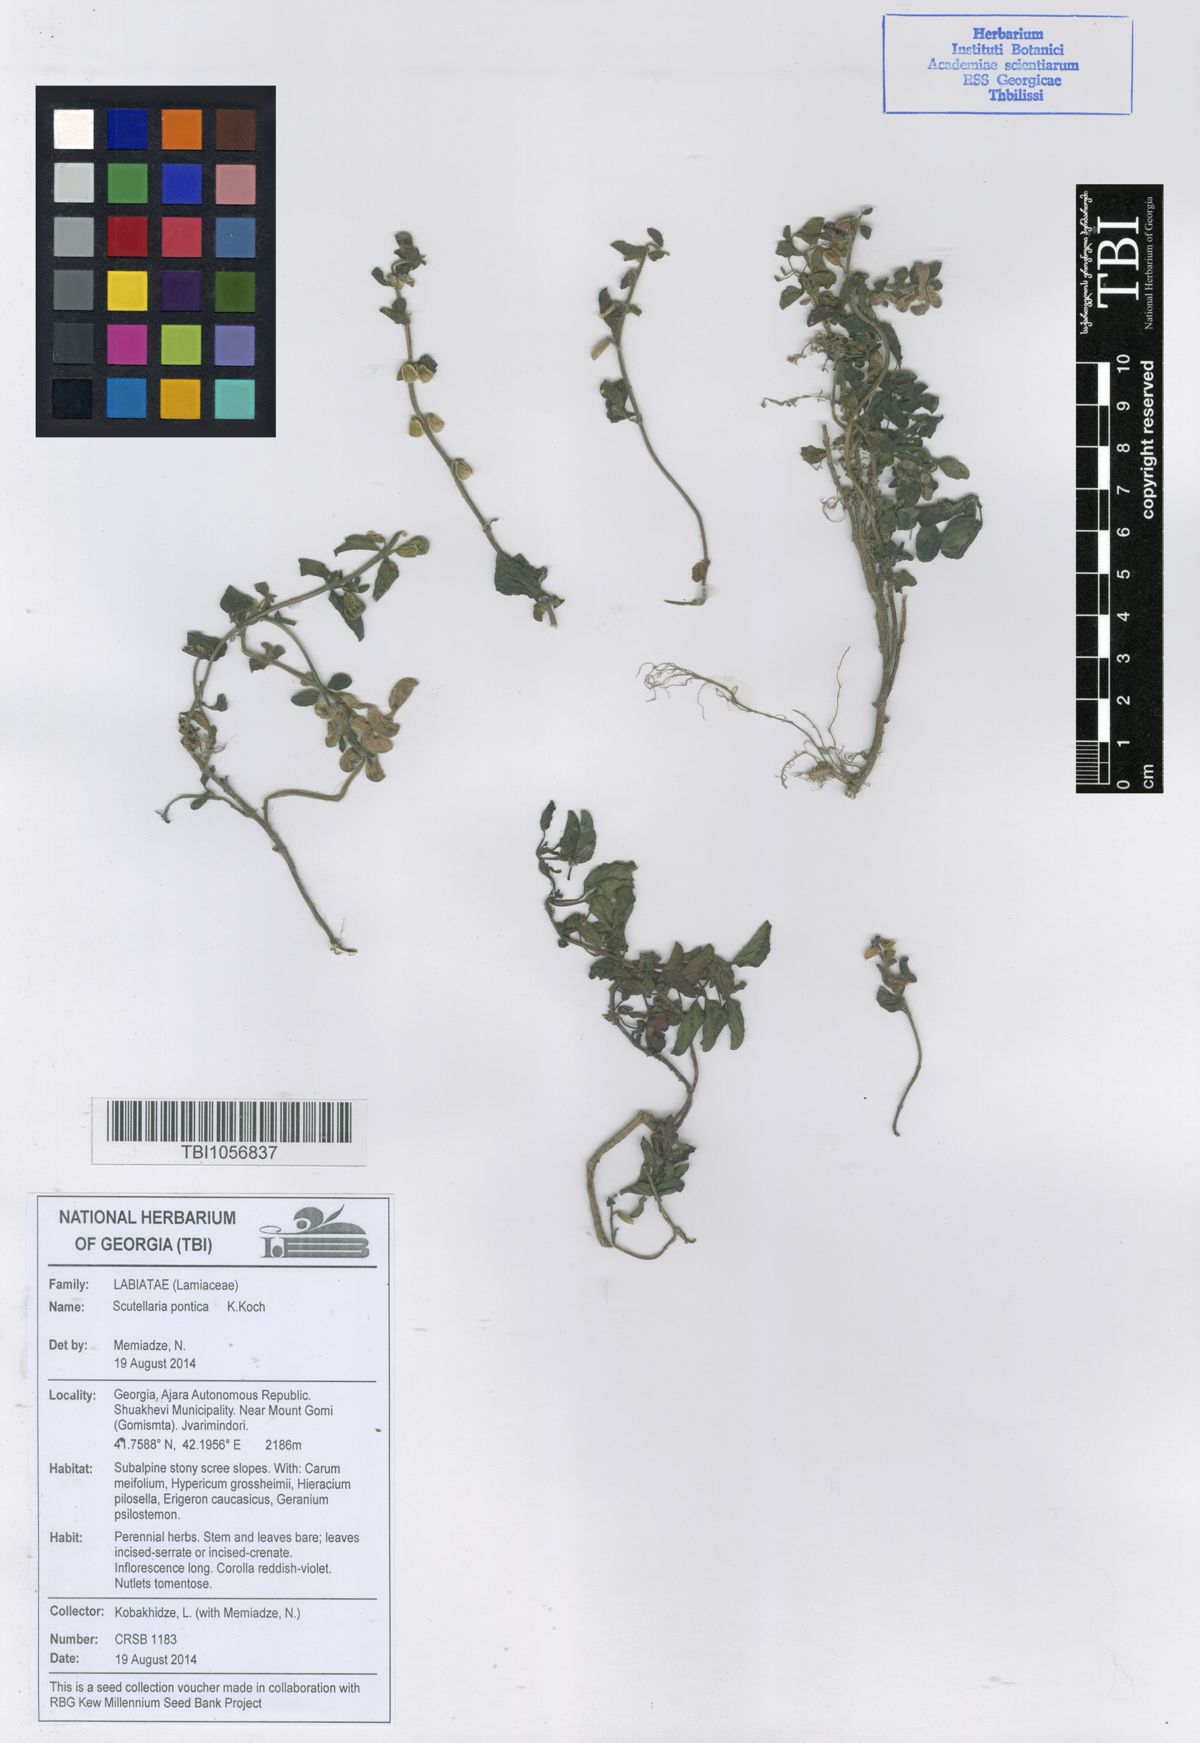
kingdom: Plantae
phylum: Tracheophyta
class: Magnoliopsida
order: Lamiales
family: Lamiaceae
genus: Scutellaria
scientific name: Scutellaria pontica
